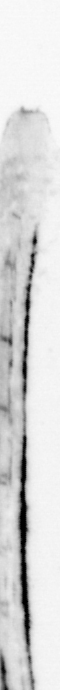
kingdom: Animalia
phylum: Chordata
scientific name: Chordata
